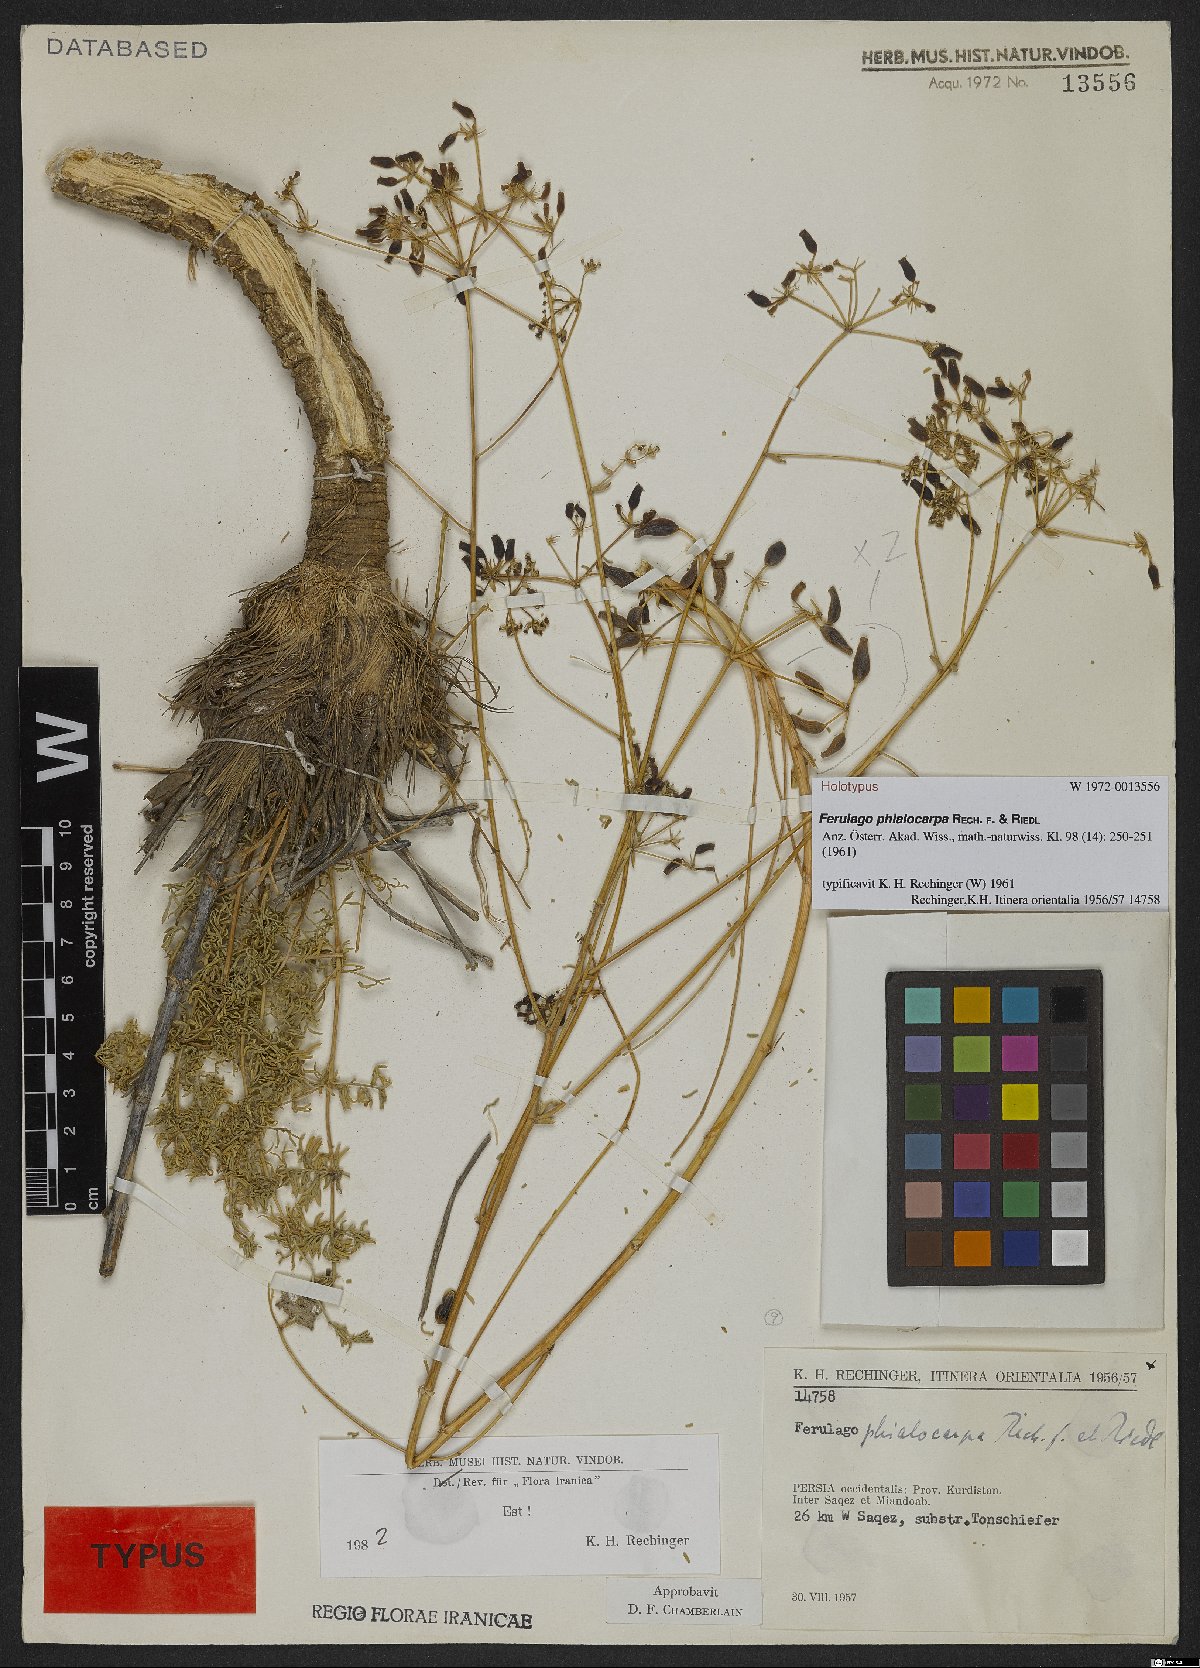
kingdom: Plantae
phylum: Tracheophyta
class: Magnoliopsida
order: Apiales
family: Apiaceae
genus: Ferulago
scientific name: Ferulago phialocarpa
